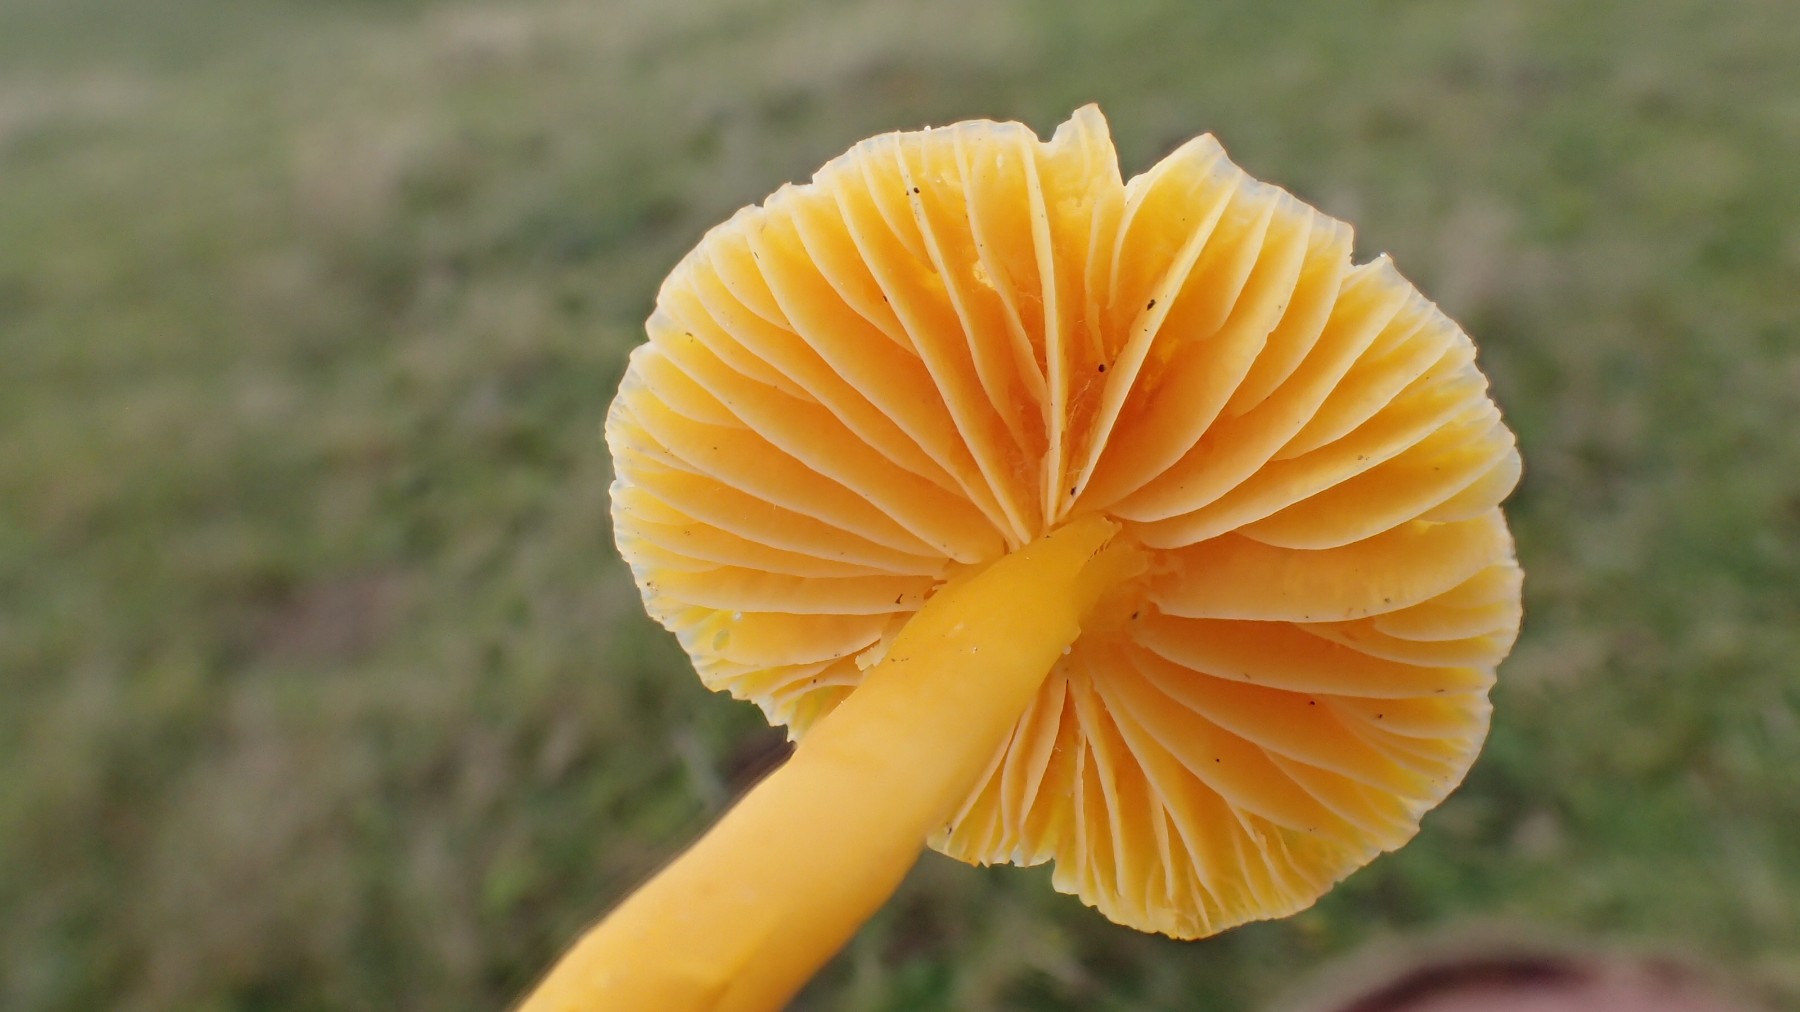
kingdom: Fungi
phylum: Basidiomycota
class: Agaricomycetes
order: Agaricales
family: Hygrophoraceae
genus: Hygrocybe
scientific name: Hygrocybe chlorophana
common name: gul vokshat
